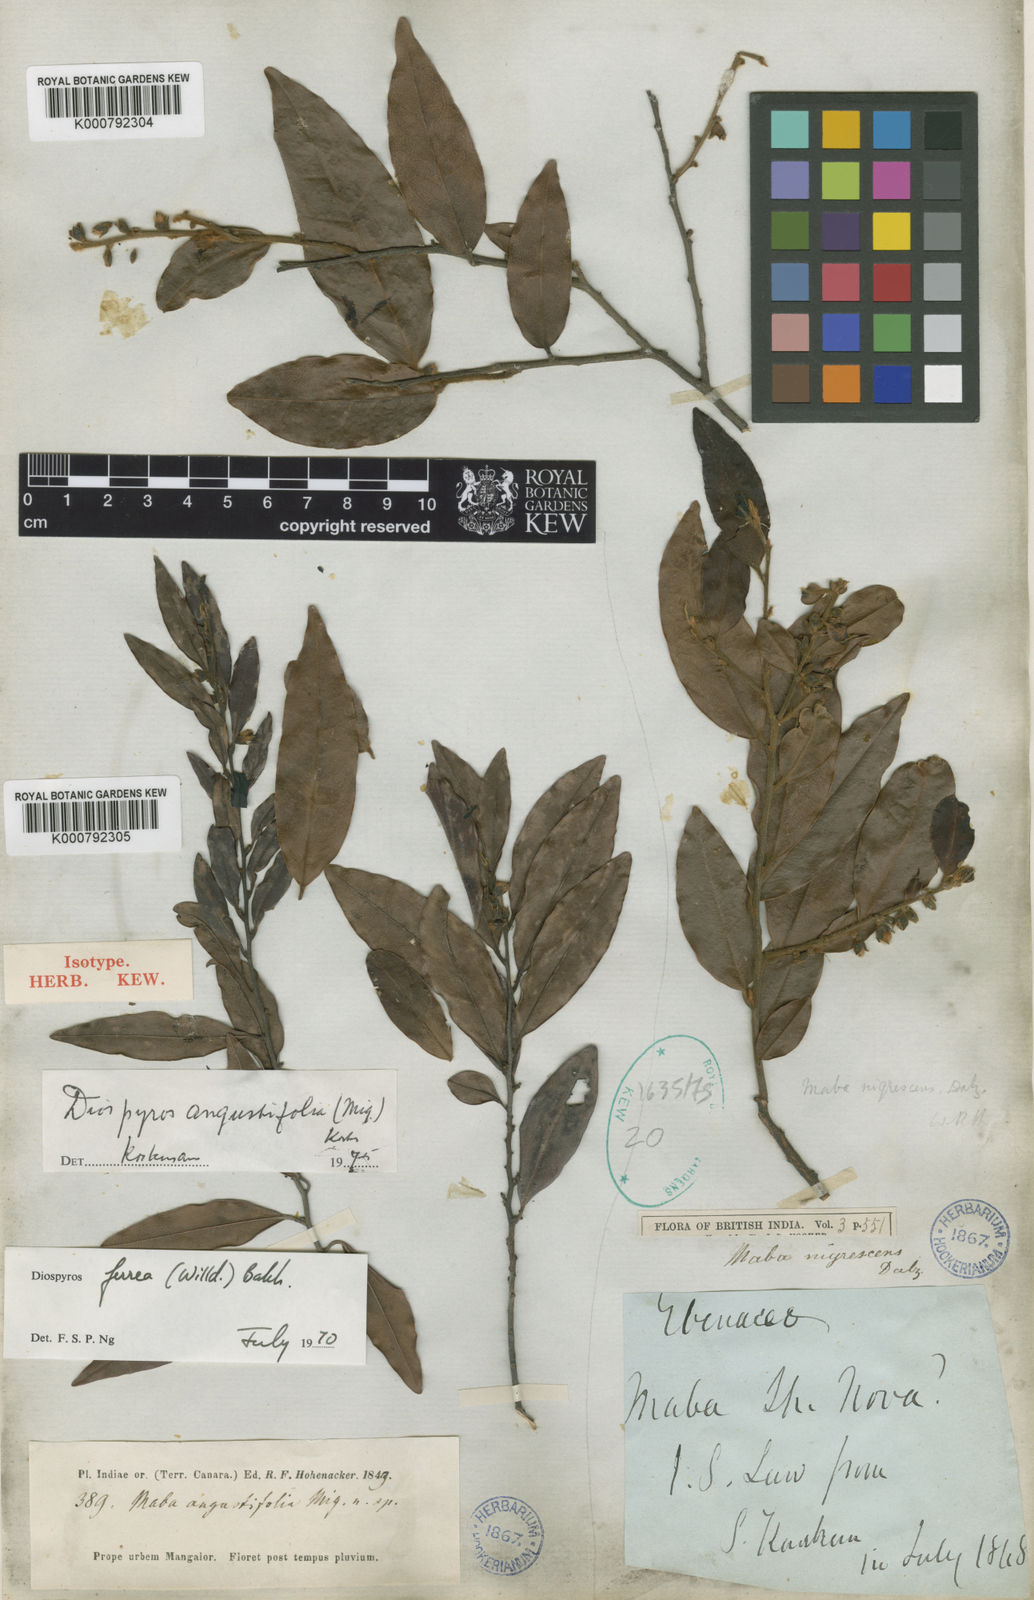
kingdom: Plantae
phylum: Tracheophyta
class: Magnoliopsida
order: Ericales
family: Ebenaceae
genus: Diospyros
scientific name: Diospyros montana
